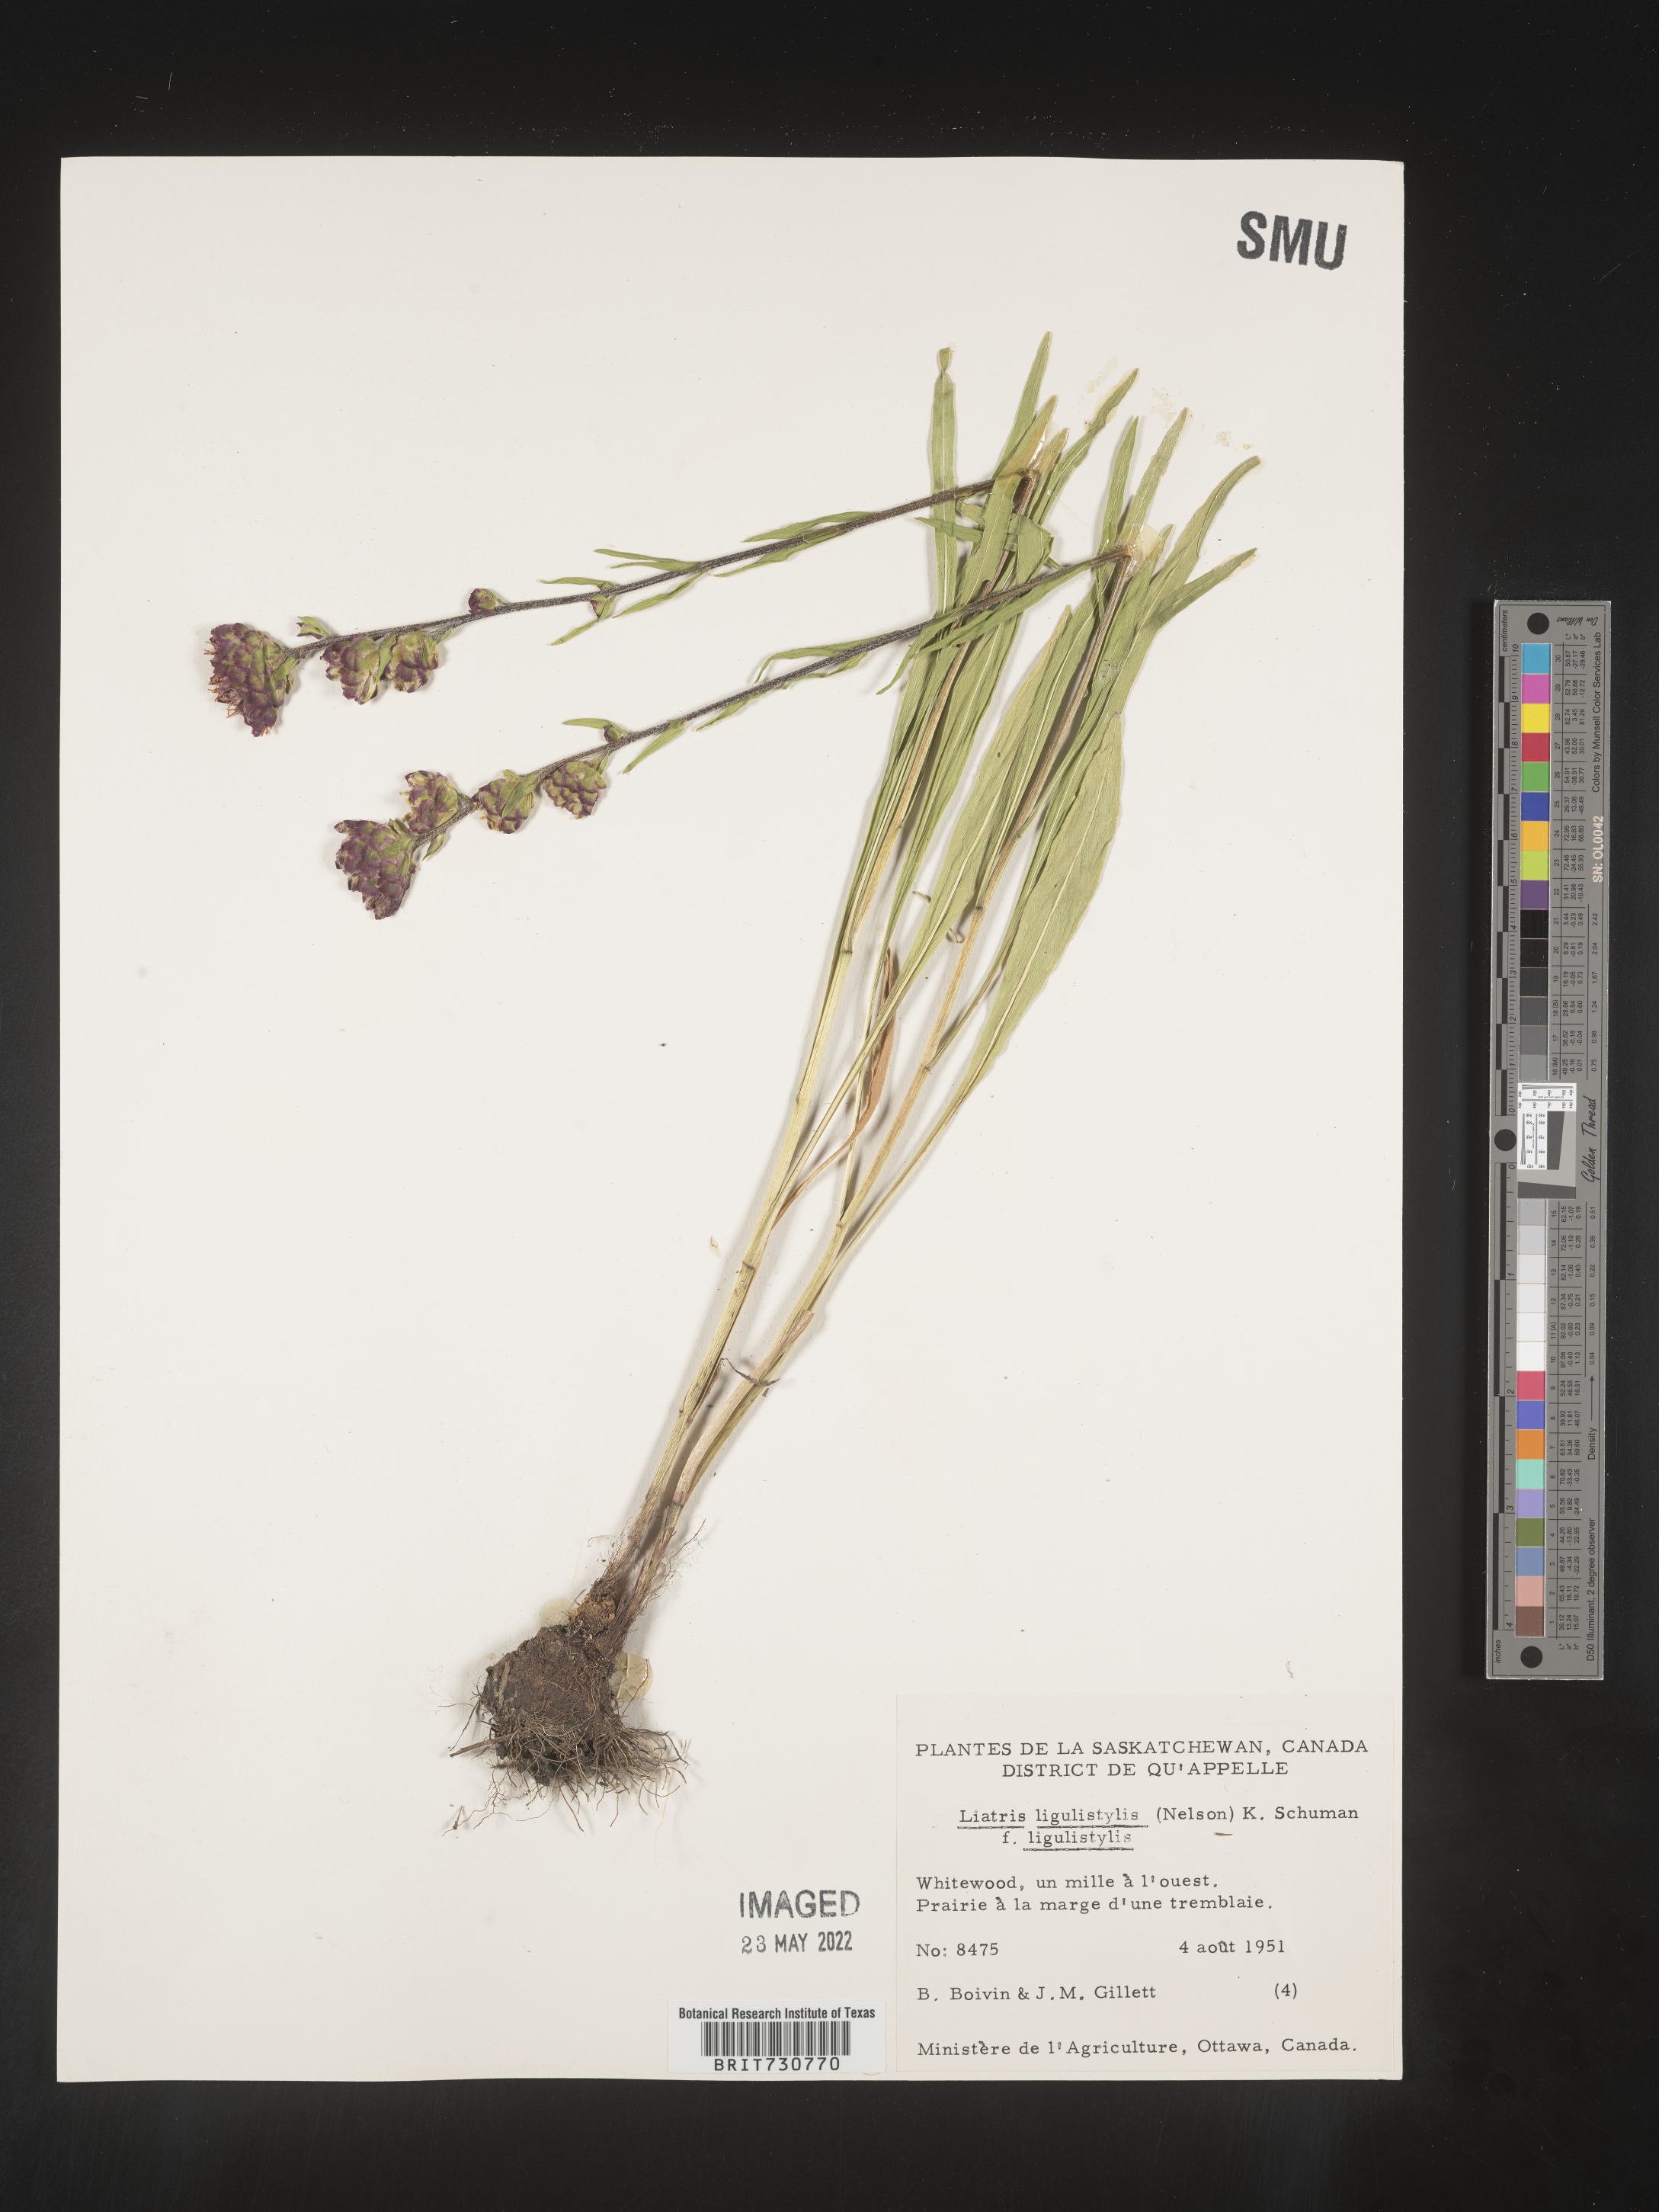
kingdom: Plantae
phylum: Tracheophyta
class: Magnoliopsida
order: Asterales
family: Asteraceae
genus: Liatris
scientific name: Liatris ligulistylis
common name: Northern plains gayfeather
